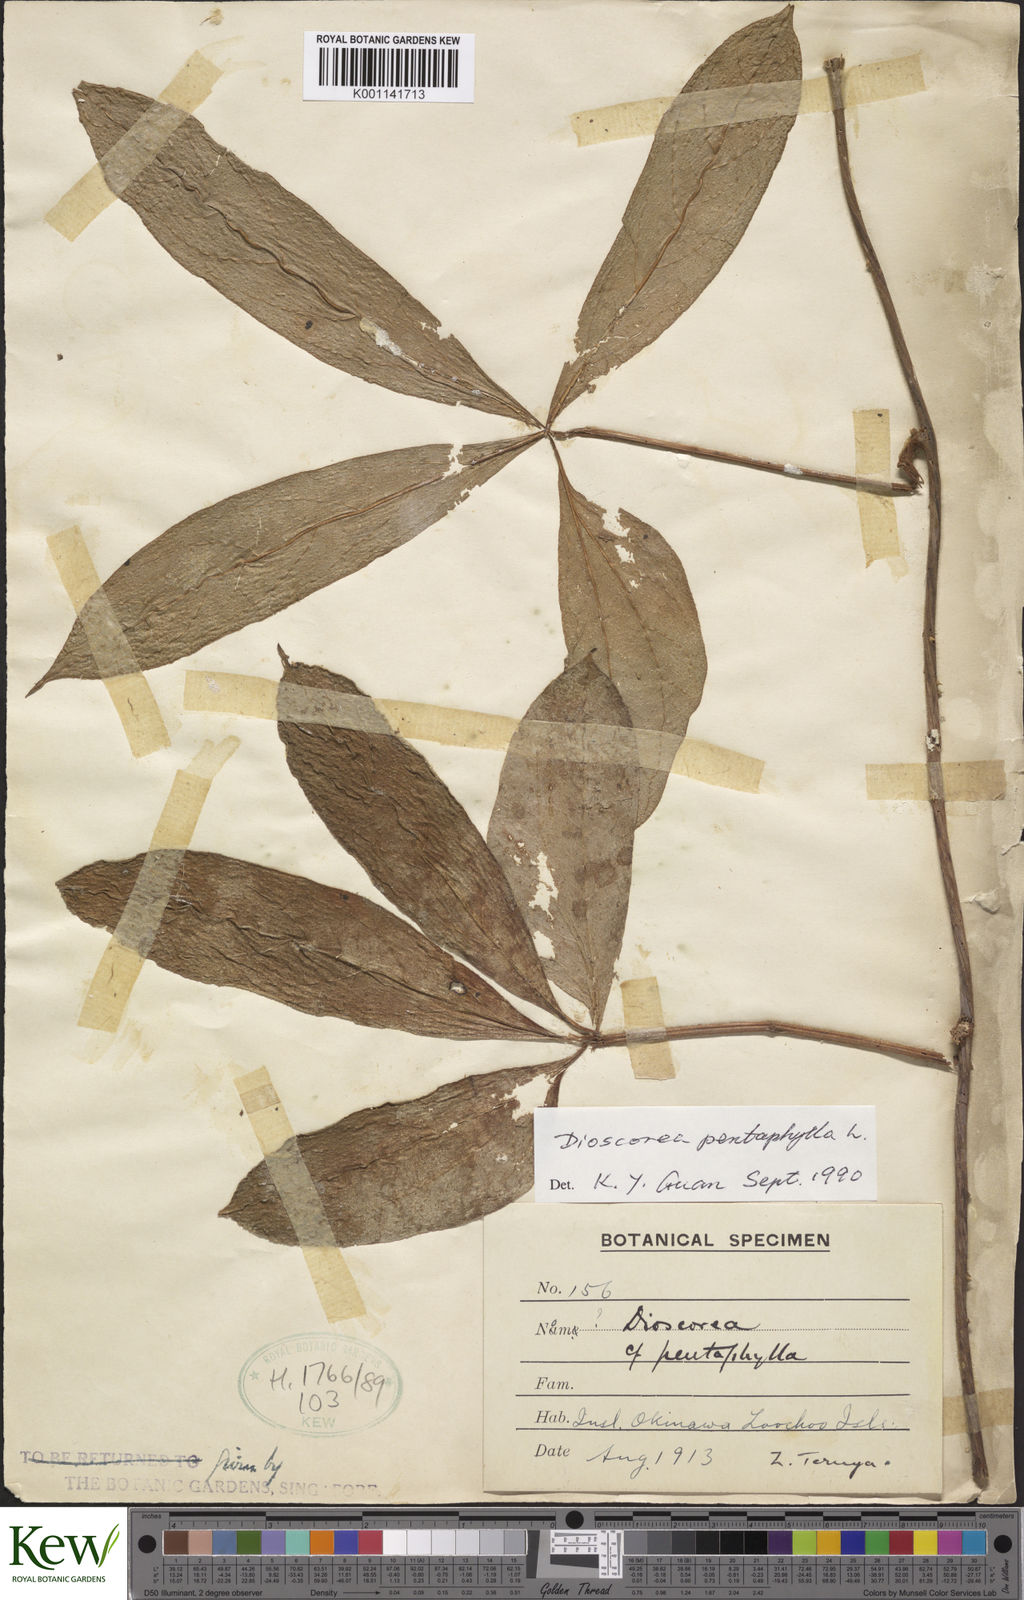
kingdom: Plantae
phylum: Tracheophyta
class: Liliopsida
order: Dioscoreales
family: Dioscoreaceae
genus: Dioscorea
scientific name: Dioscorea pentaphylla
